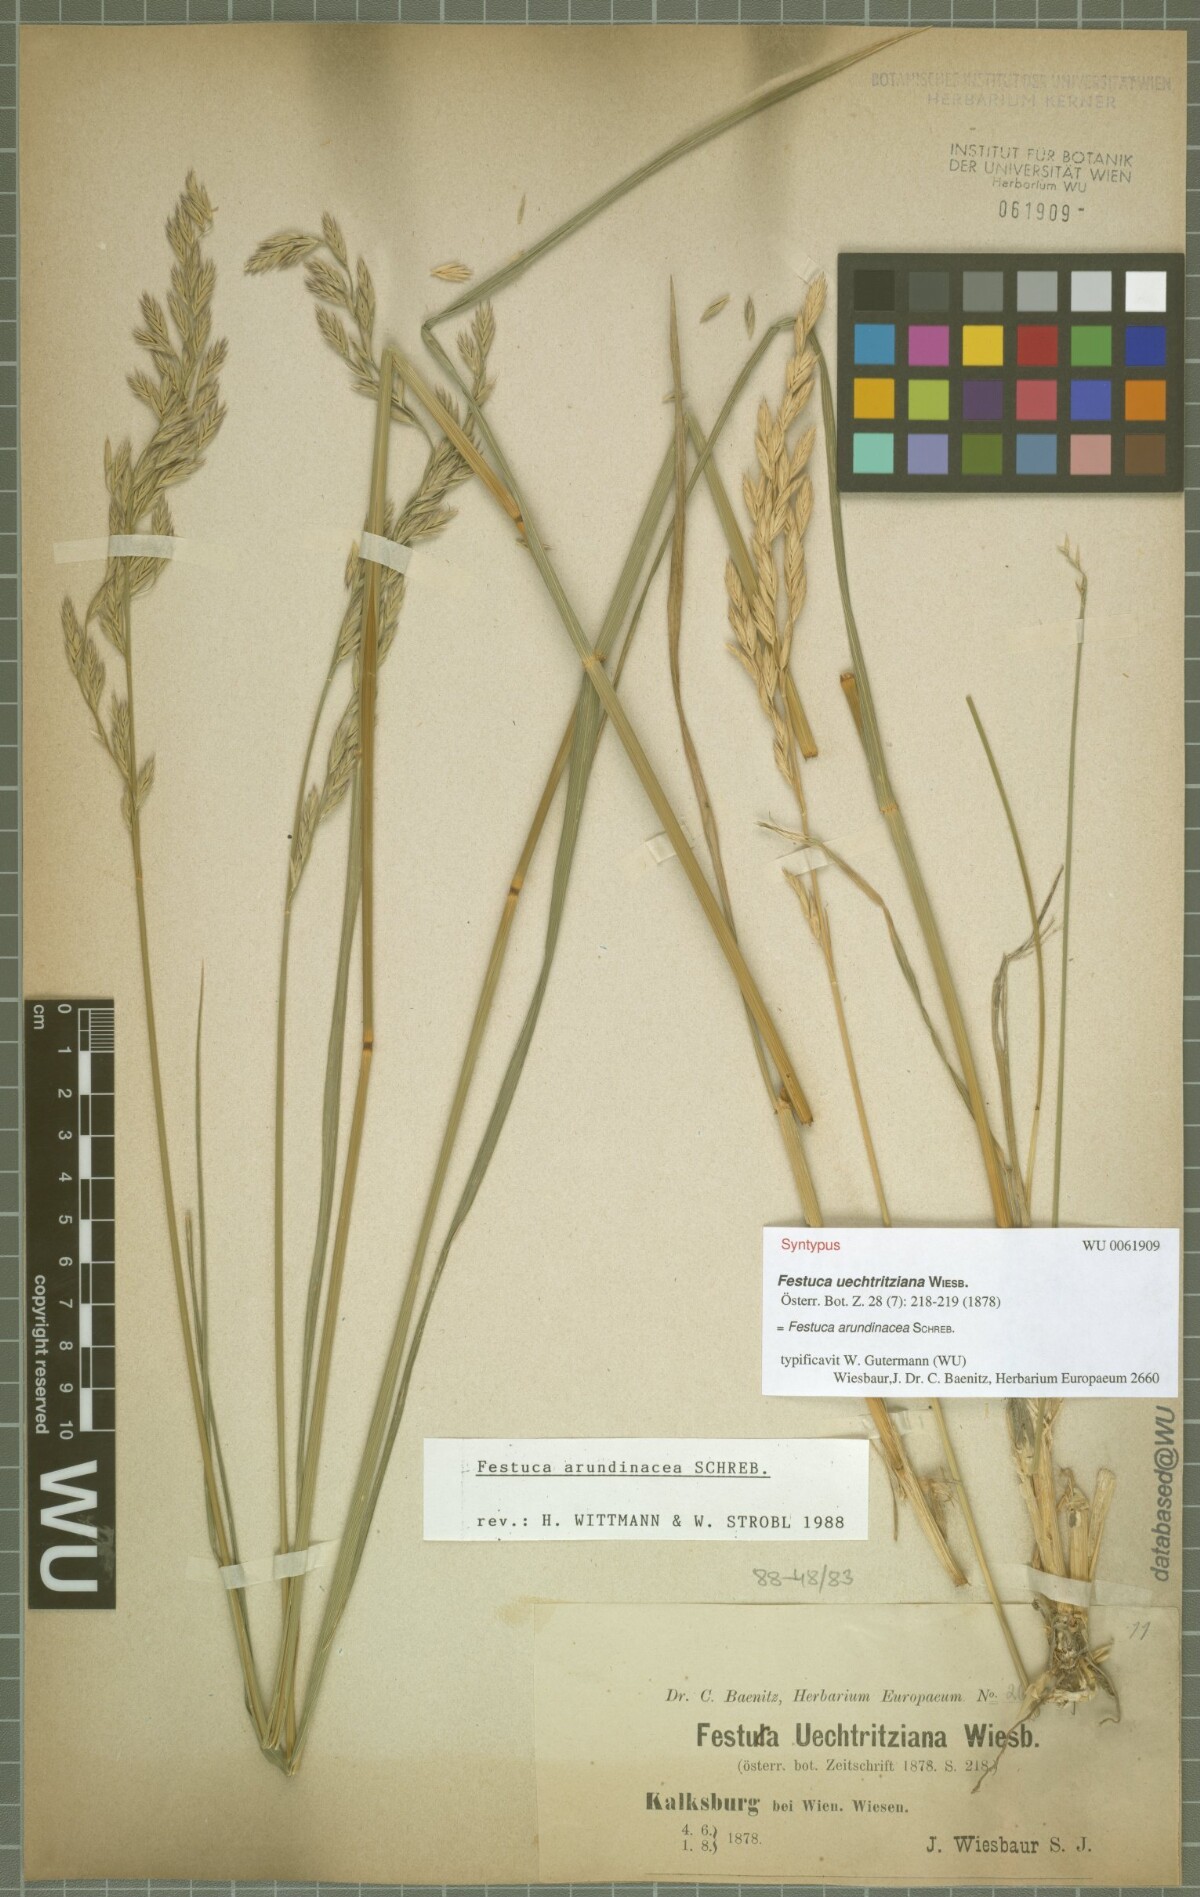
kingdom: Plantae
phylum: Tracheophyta
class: Liliopsida
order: Poales
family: Poaceae
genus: Lolium
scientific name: Lolium arundinaceum
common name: Reed fescue
